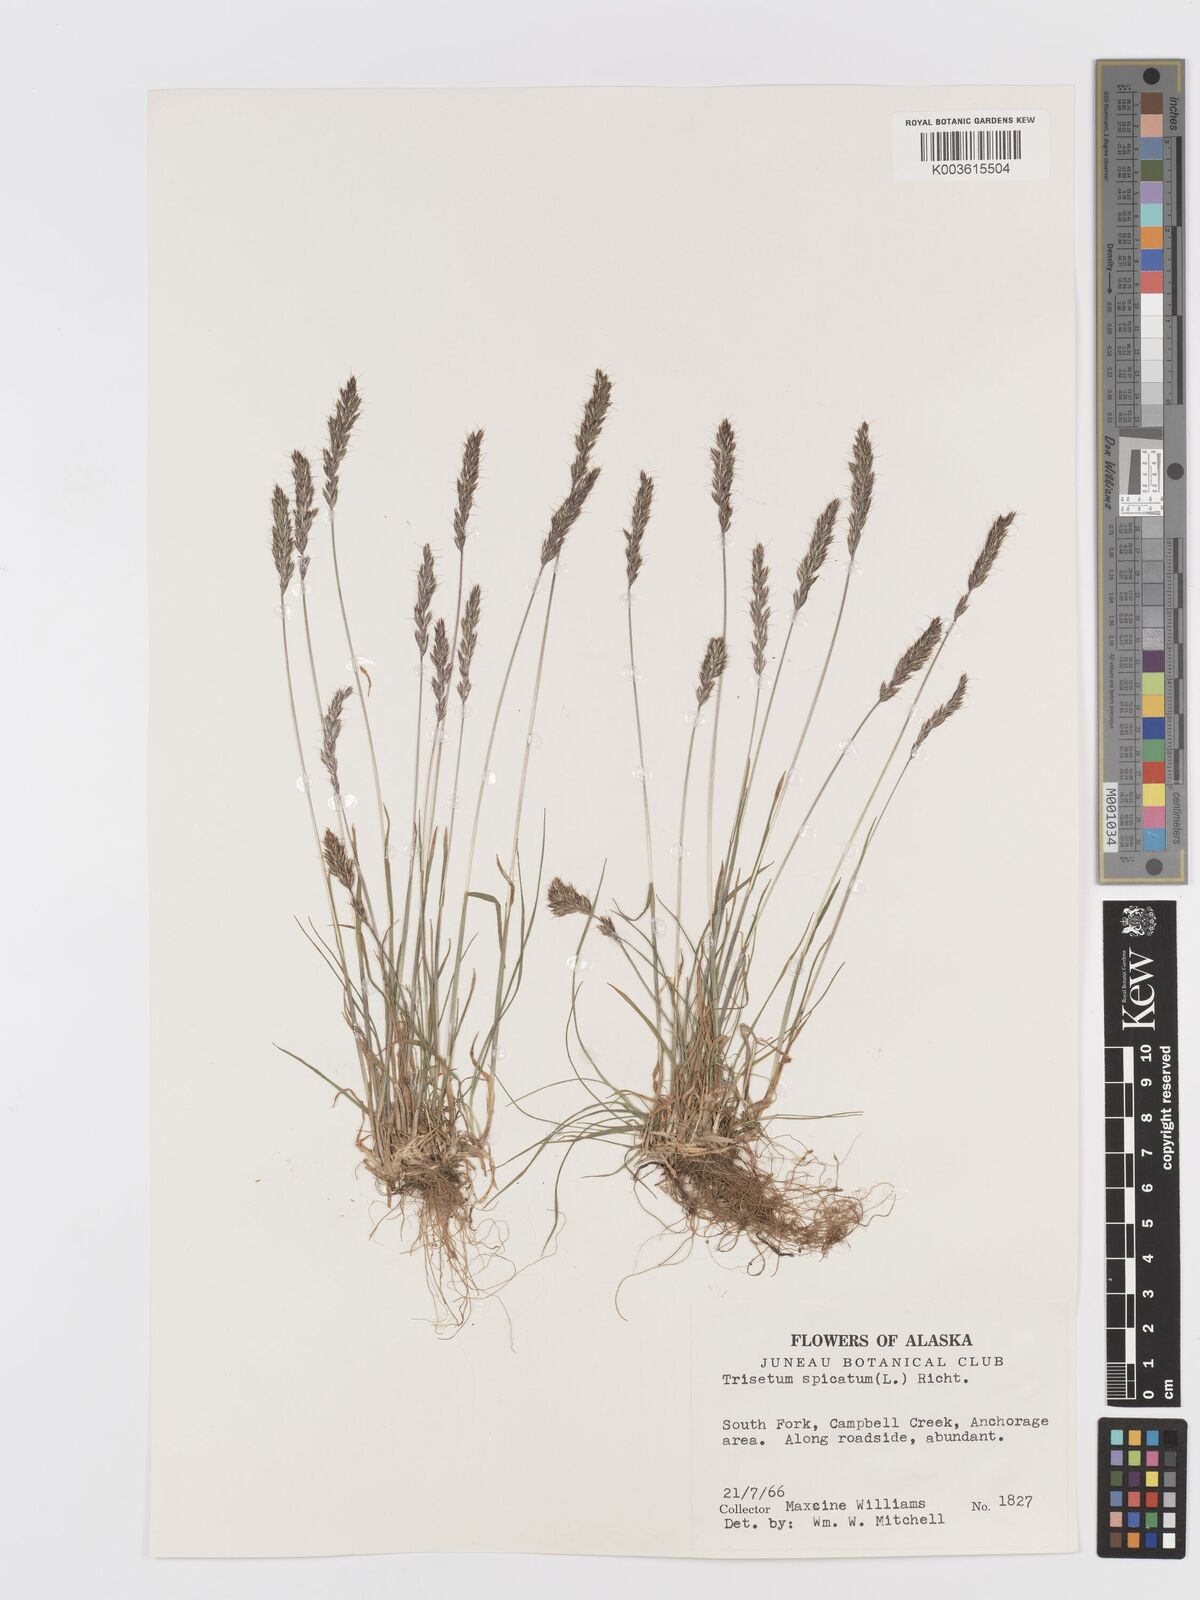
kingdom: Plantae
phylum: Tracheophyta
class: Liliopsida
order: Poales
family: Poaceae
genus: Koeleria
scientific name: Koeleria spicata
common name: Mountain trisetum
